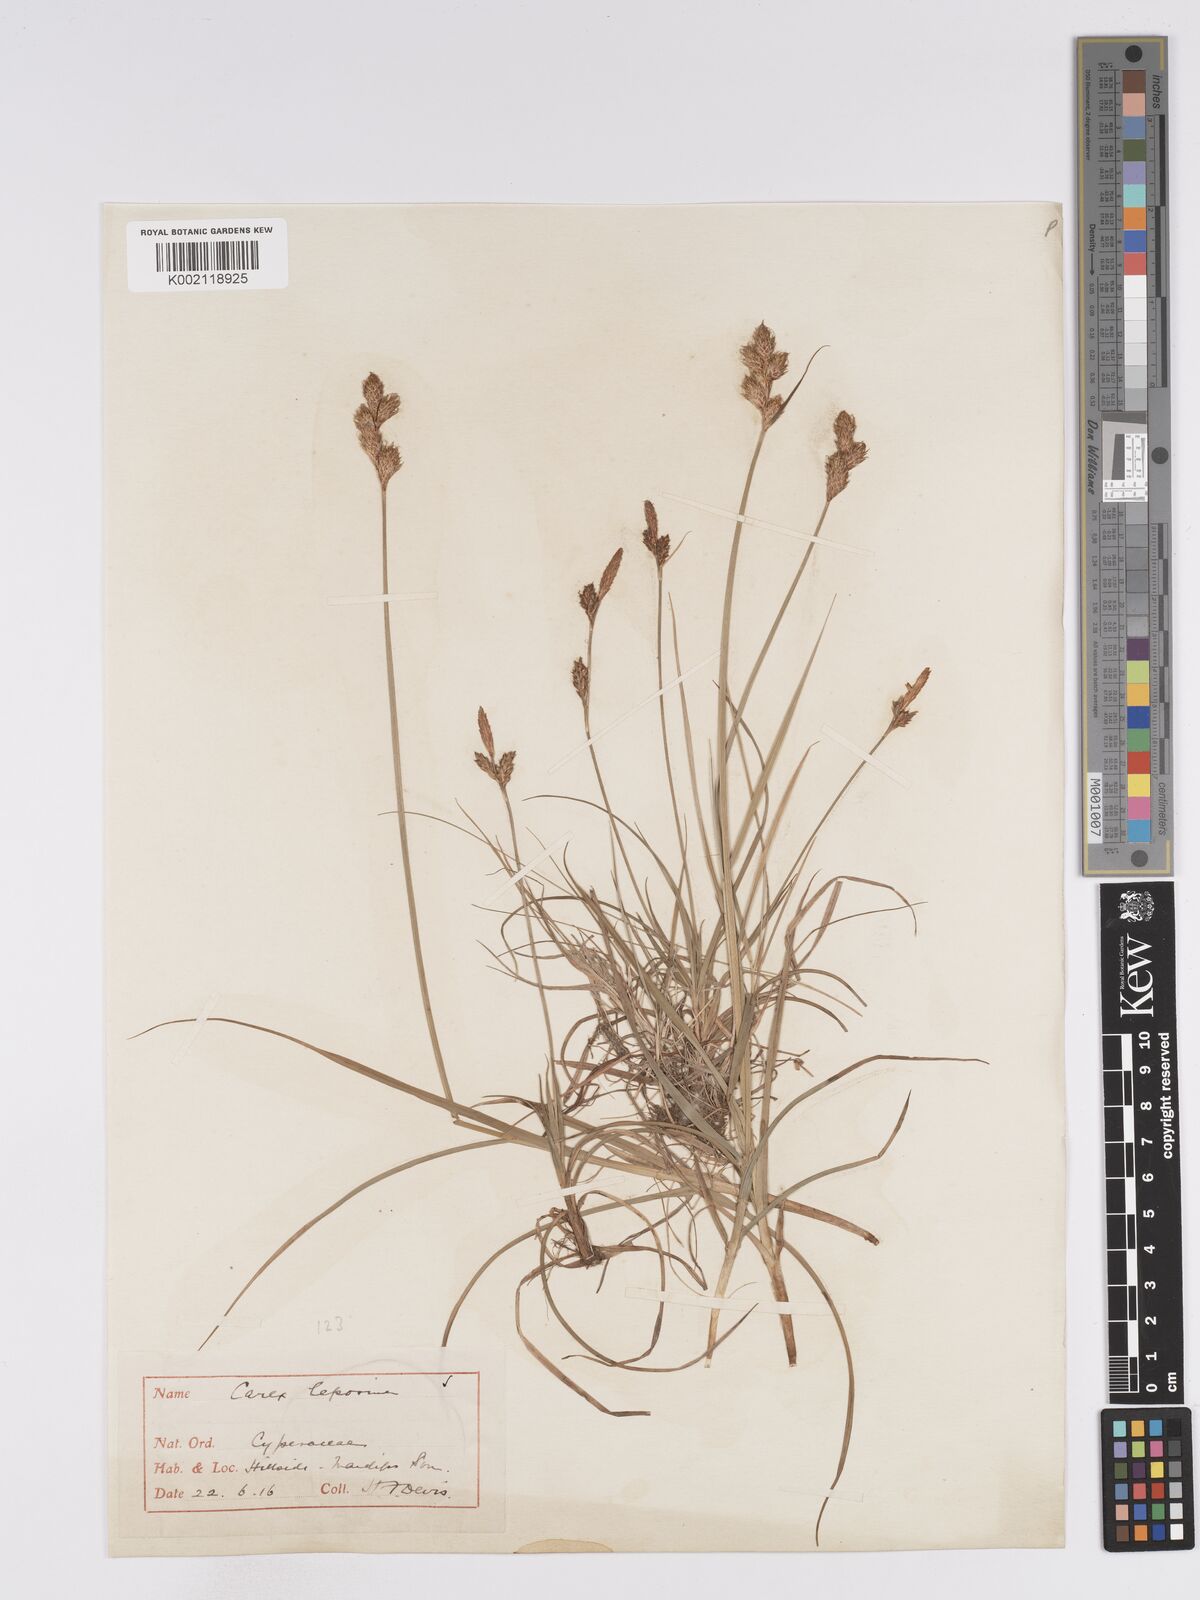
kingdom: Plantae
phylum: Tracheophyta
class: Liliopsida
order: Poales
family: Cyperaceae
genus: Carex
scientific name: Carex leporina
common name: Oval sedge
